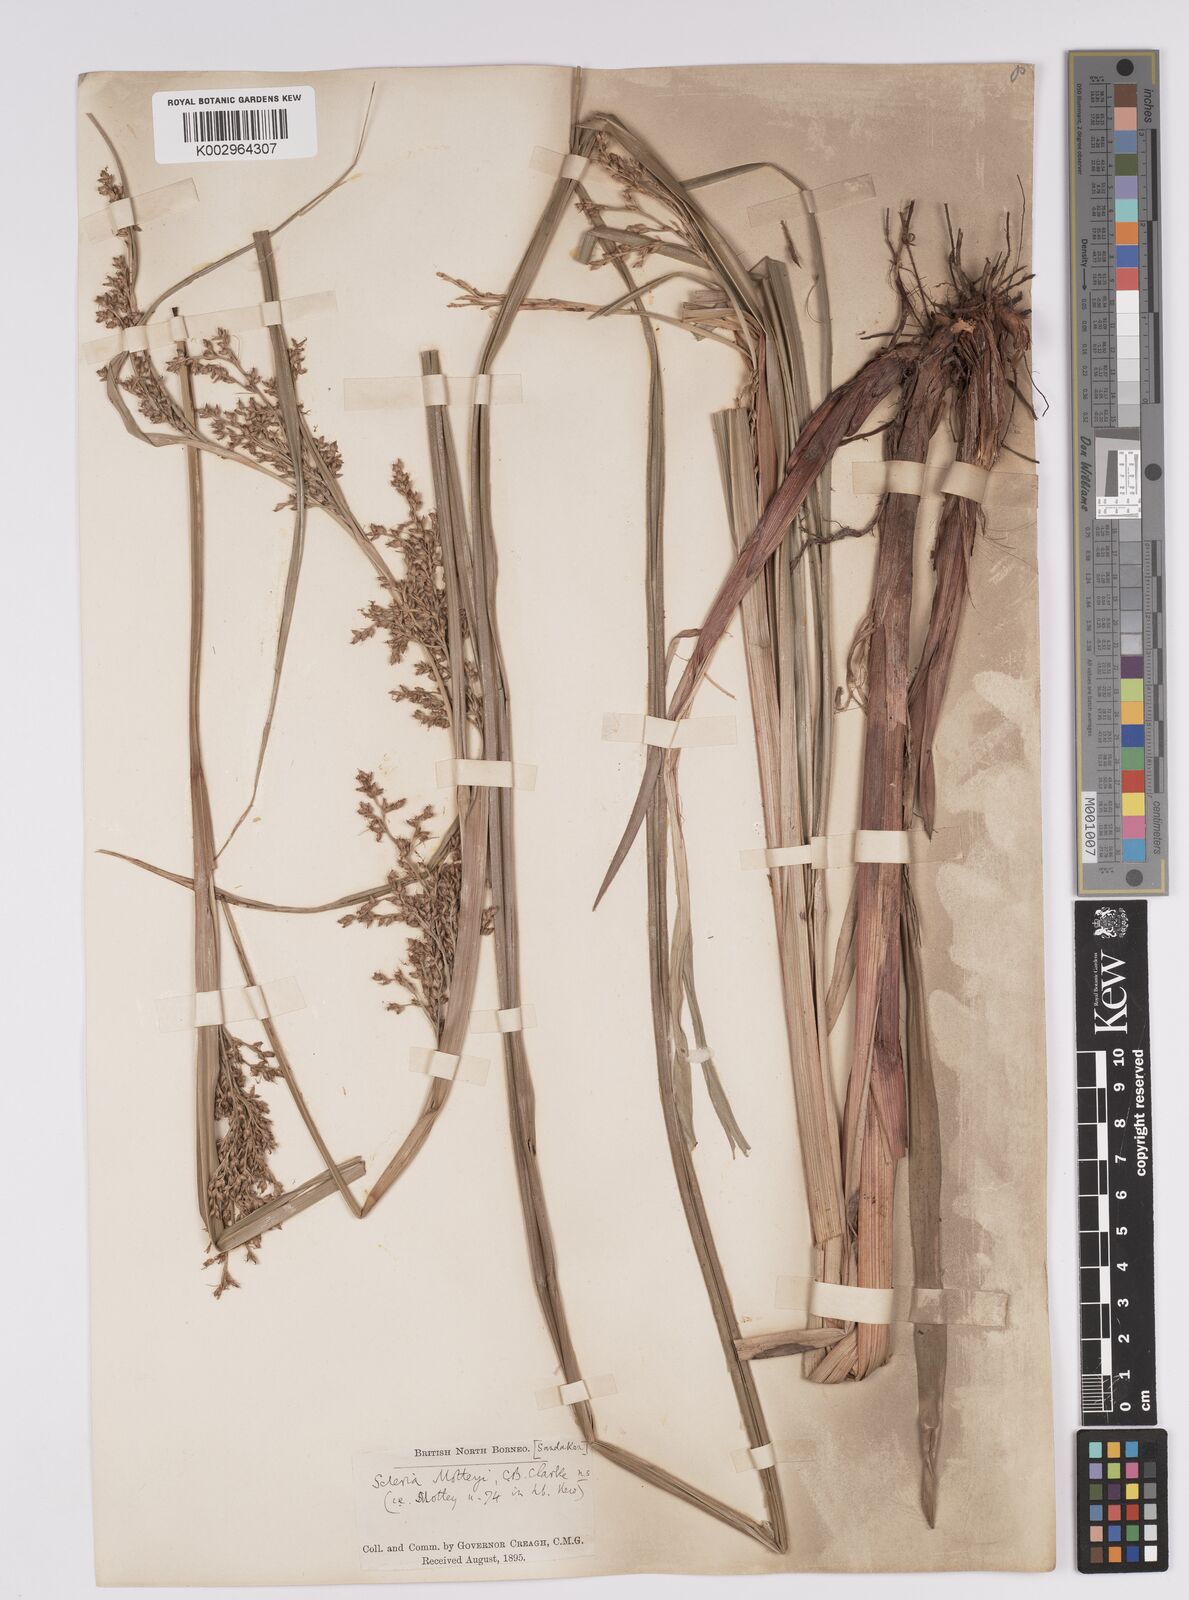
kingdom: Plantae
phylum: Tracheophyta
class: Liliopsida
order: Poales
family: Cyperaceae
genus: Scleria
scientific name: Scleria motleyi
